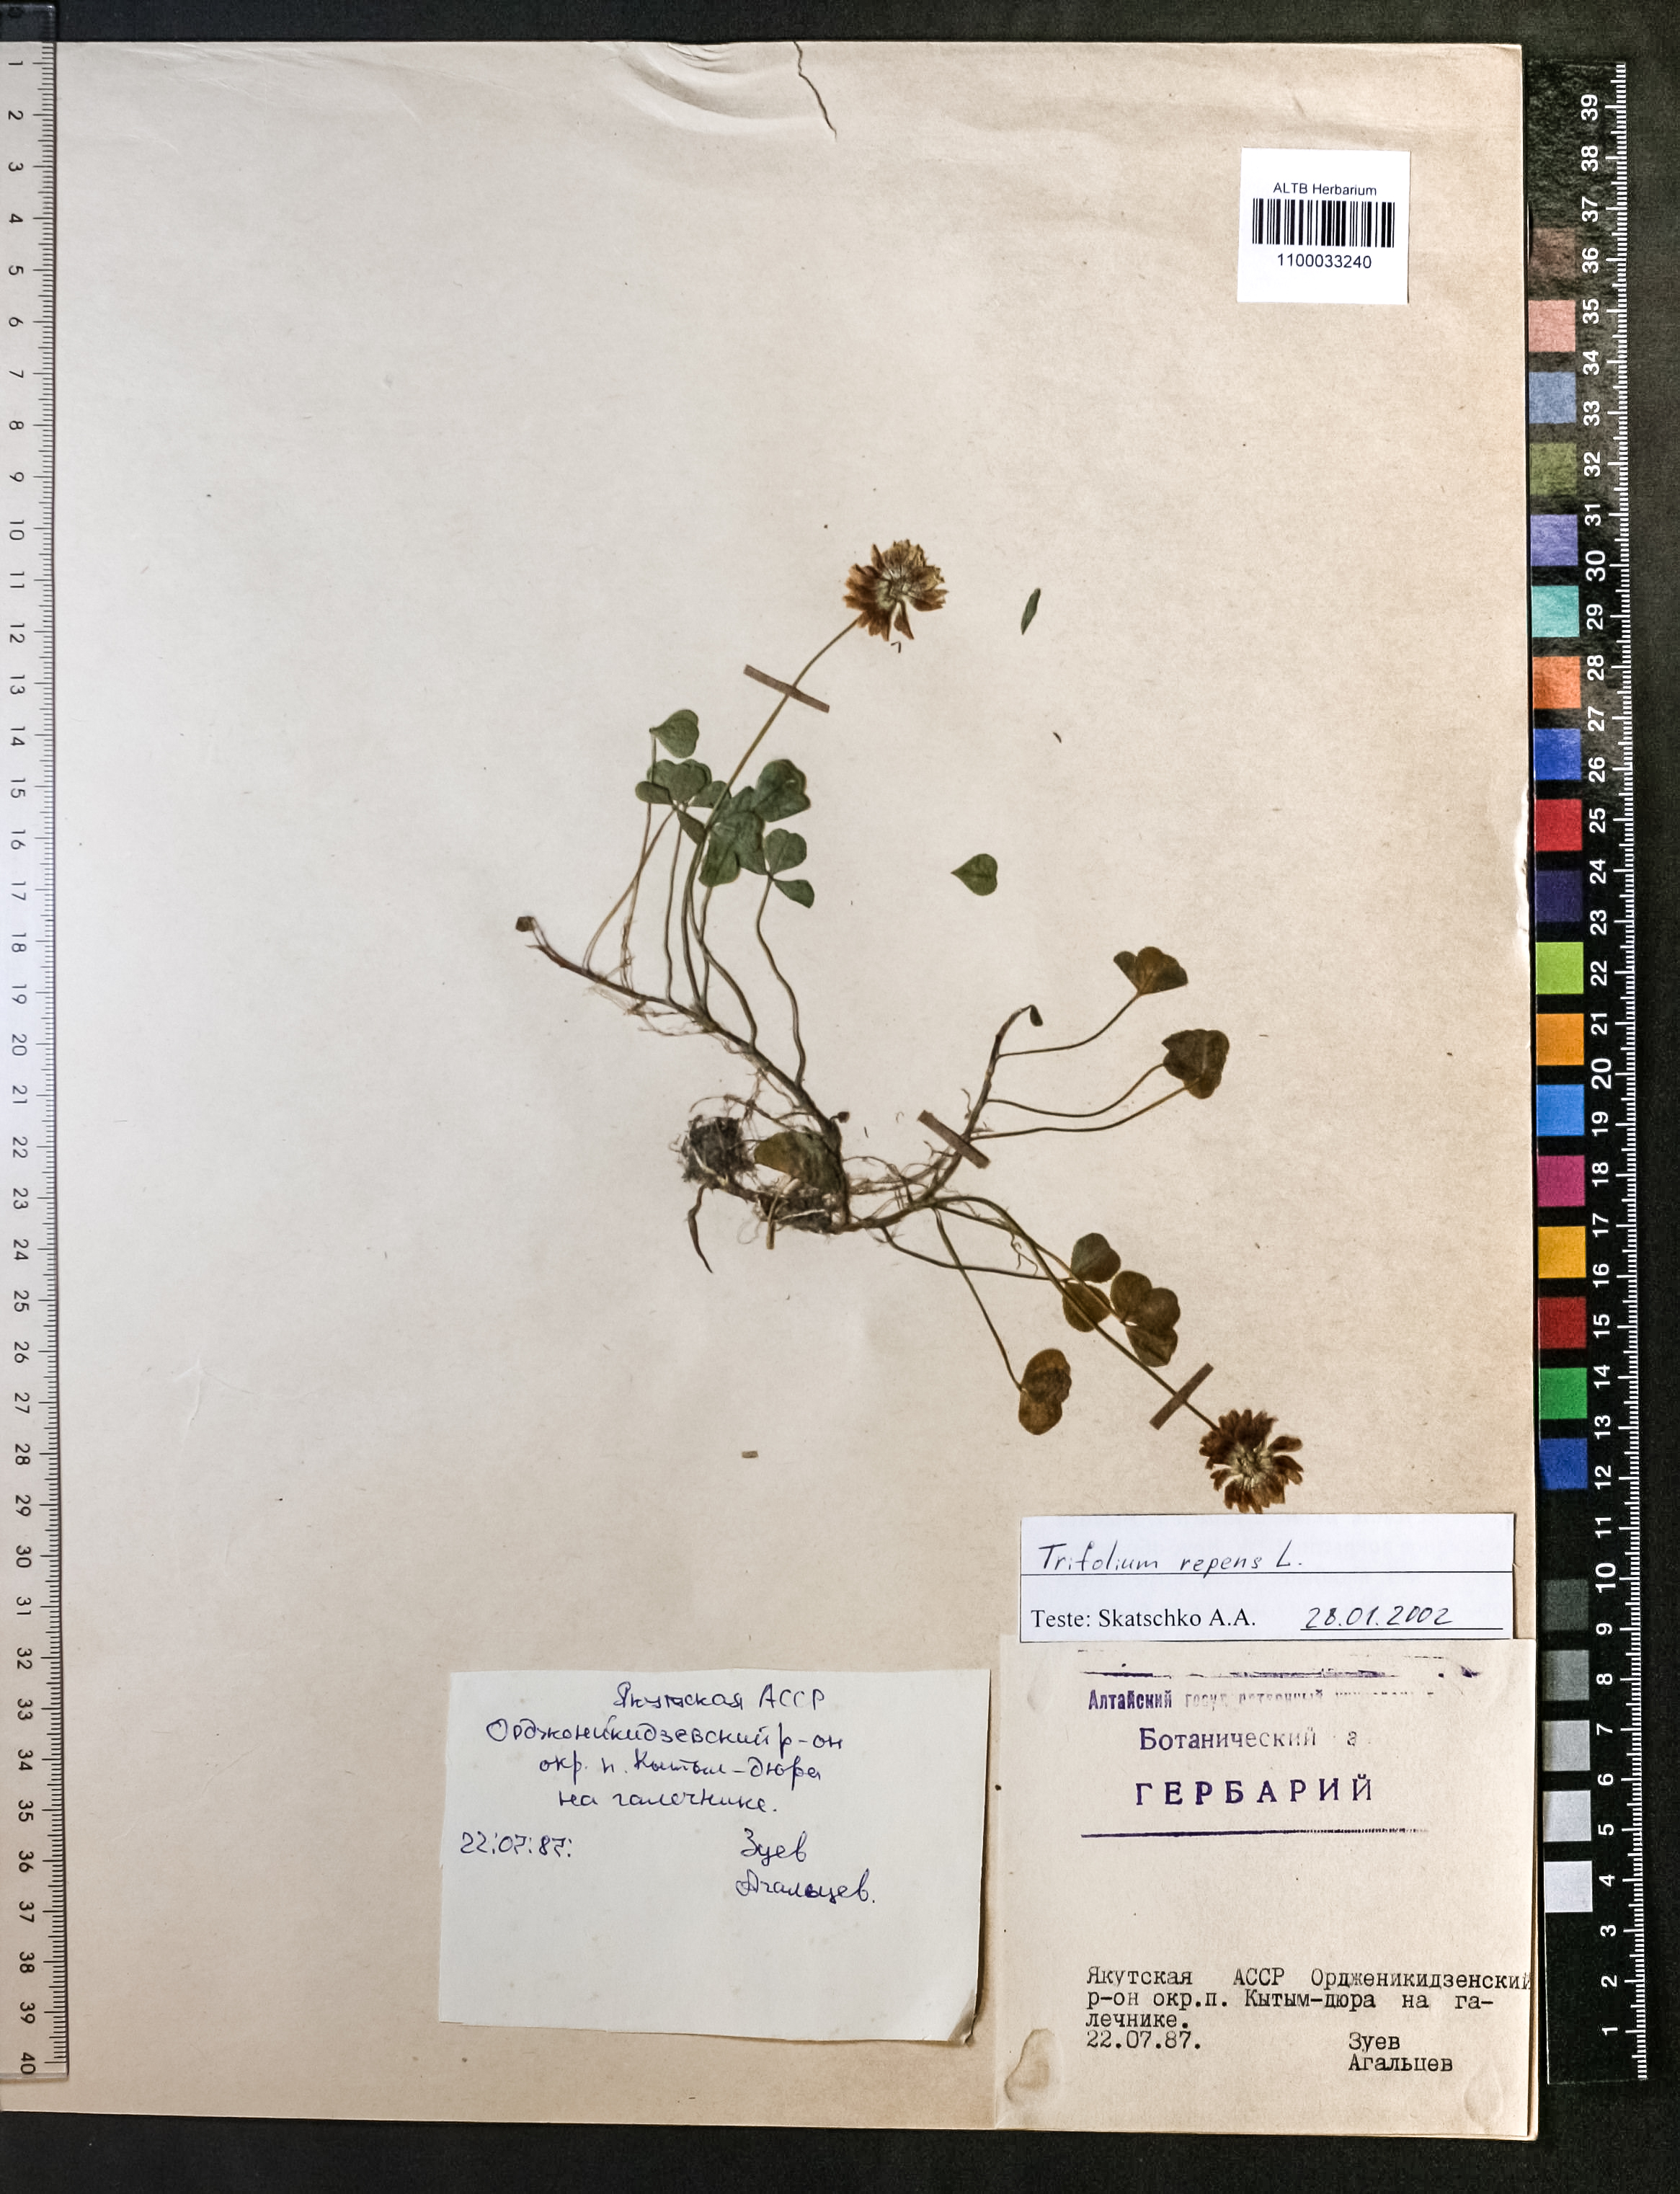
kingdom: Plantae
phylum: Tracheophyta
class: Magnoliopsida
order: Fabales
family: Fabaceae
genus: Trifolium
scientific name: Trifolium repens
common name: White clover
